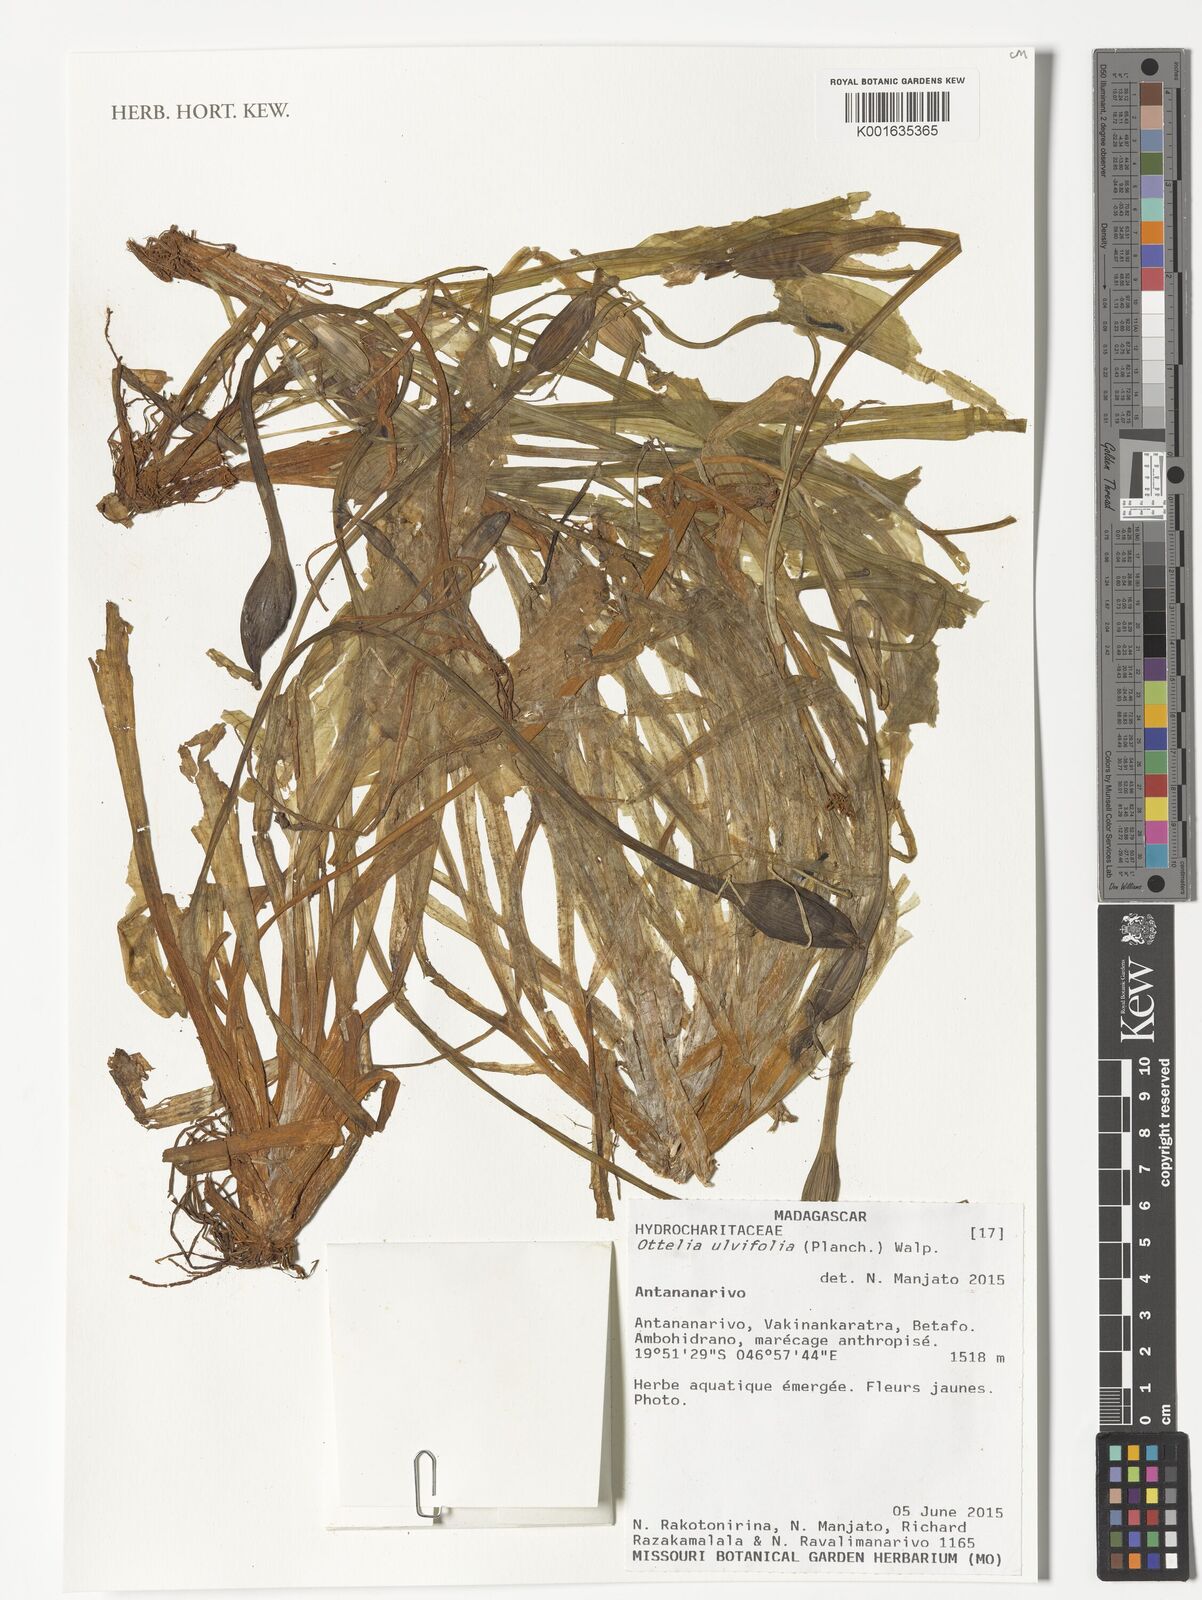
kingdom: Plantae
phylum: Tracheophyta
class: Liliopsida
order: Alismatales
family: Hydrocharitaceae
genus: Ottelia
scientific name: Ottelia ulvifolia
